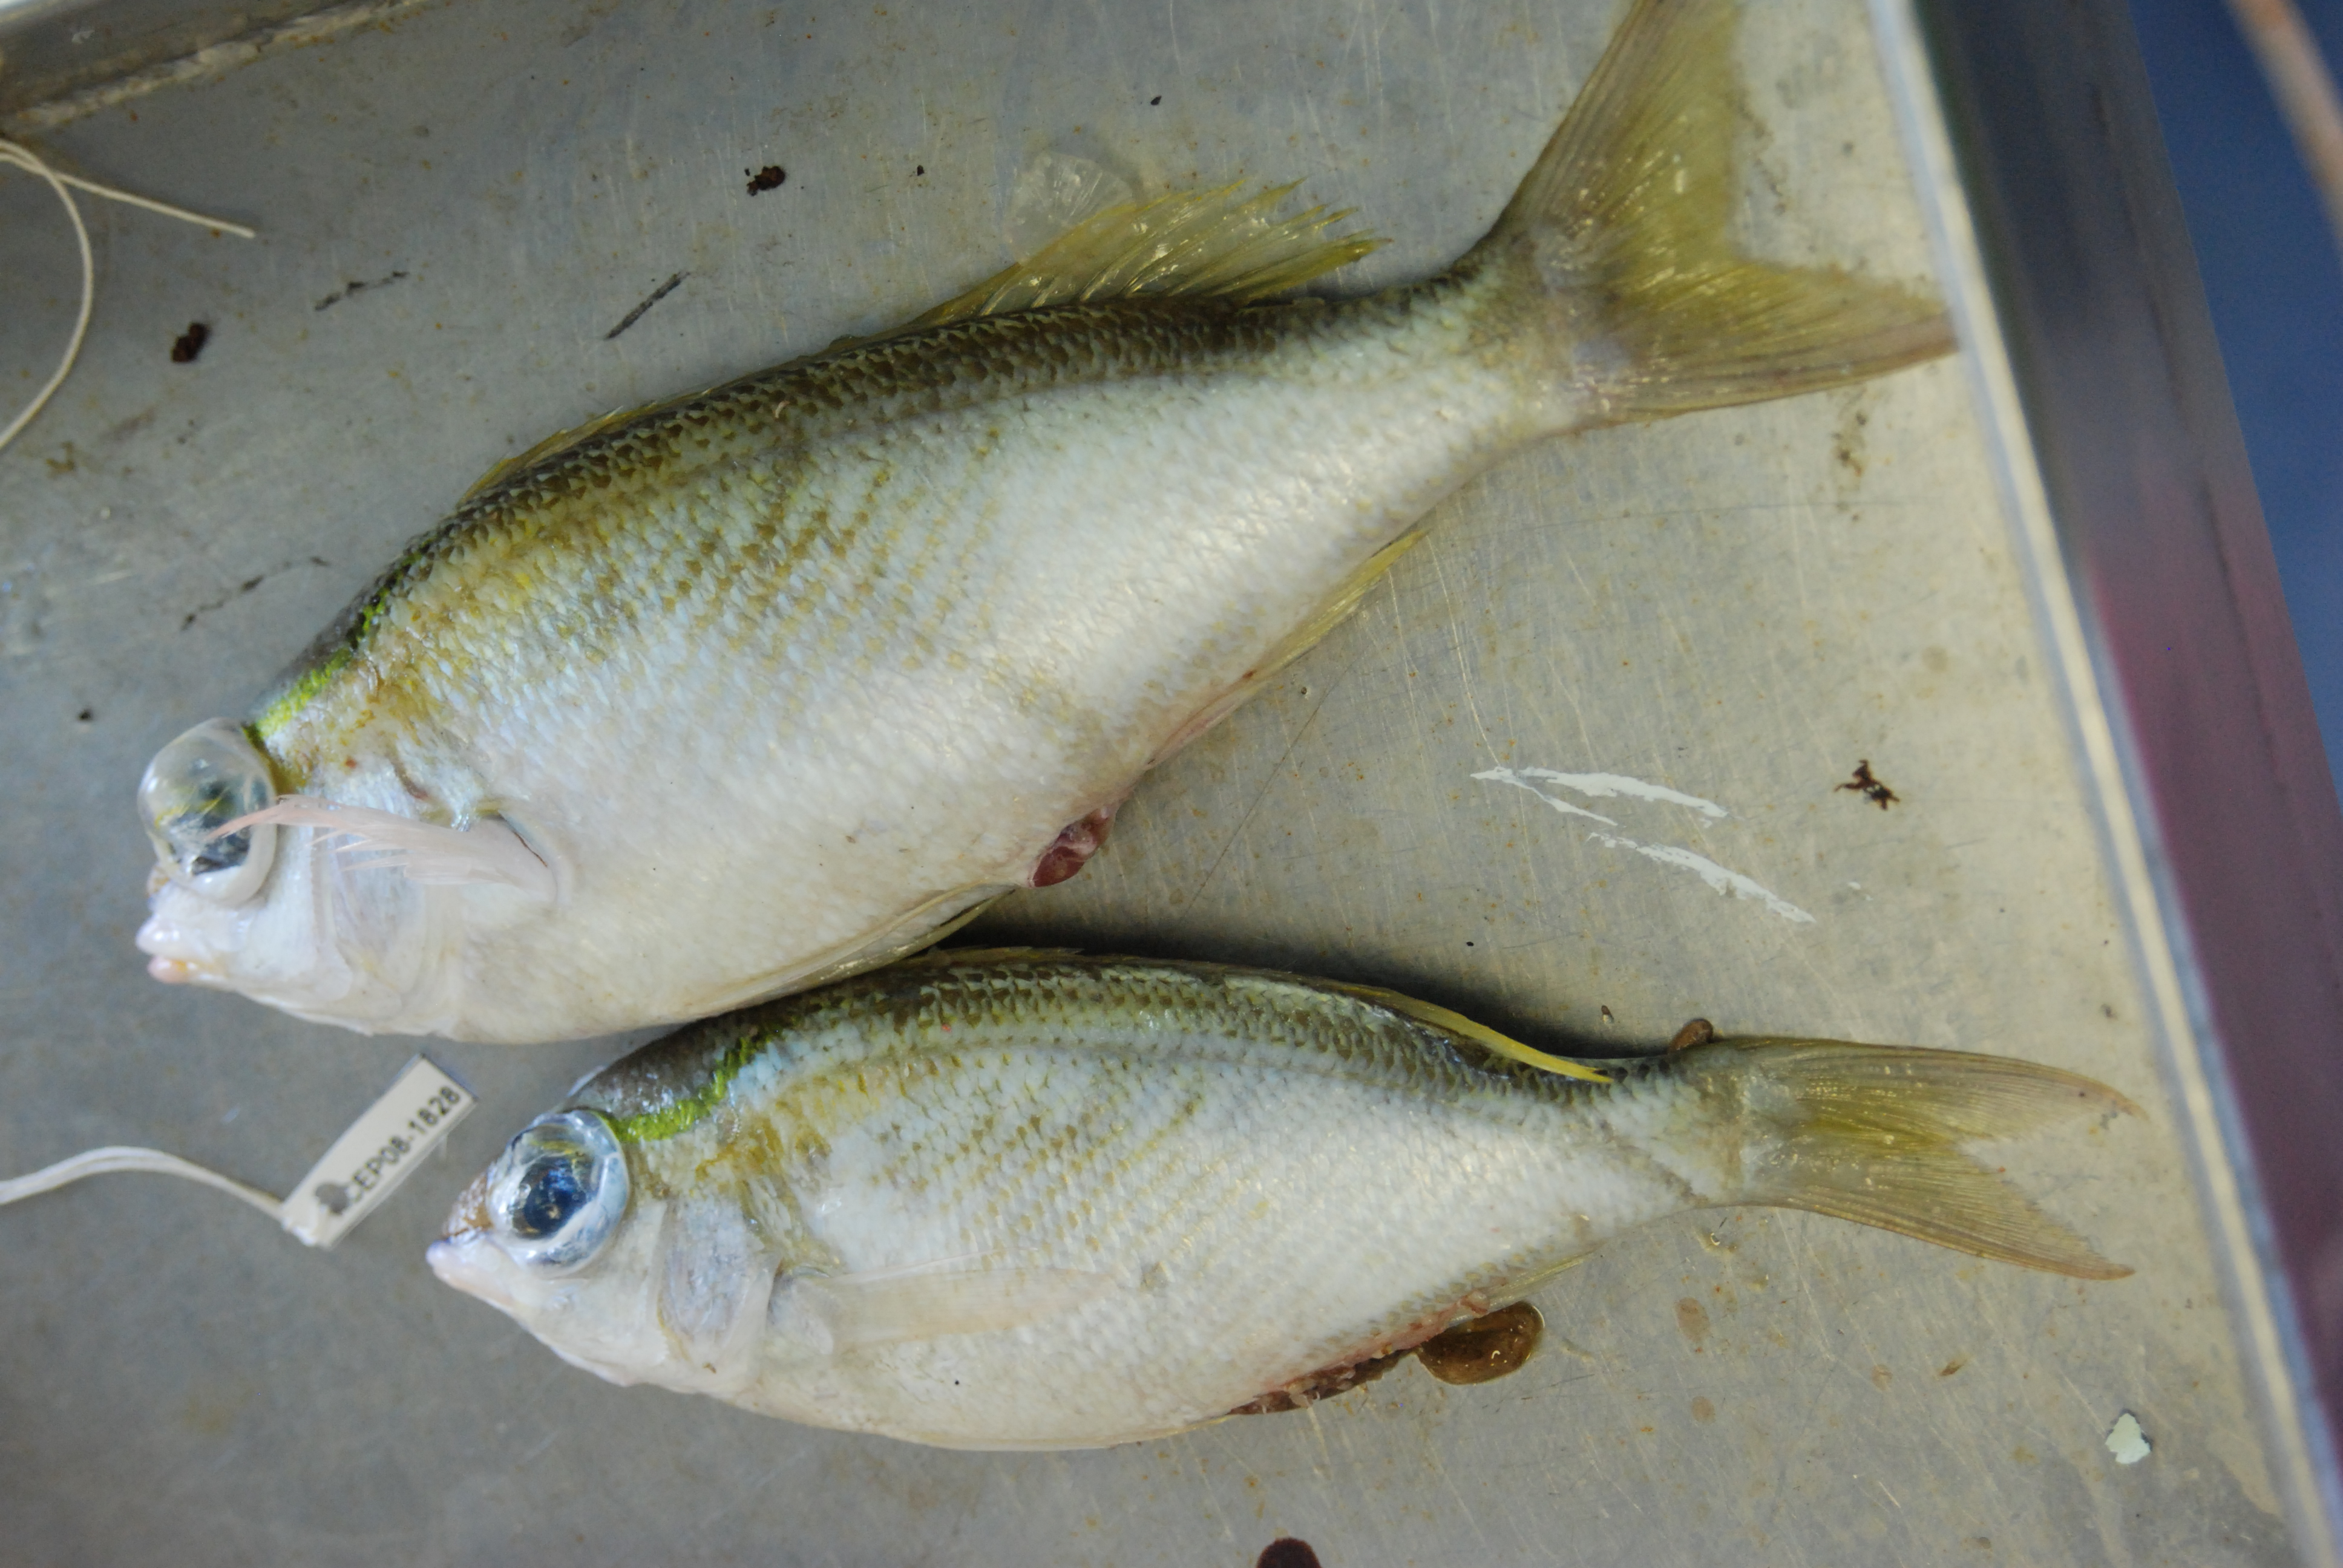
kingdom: Animalia
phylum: Chordata
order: Perciformes
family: Nemipteridae
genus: Scolopsis
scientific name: Scolopsis frenata
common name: Bridled monocle bream
